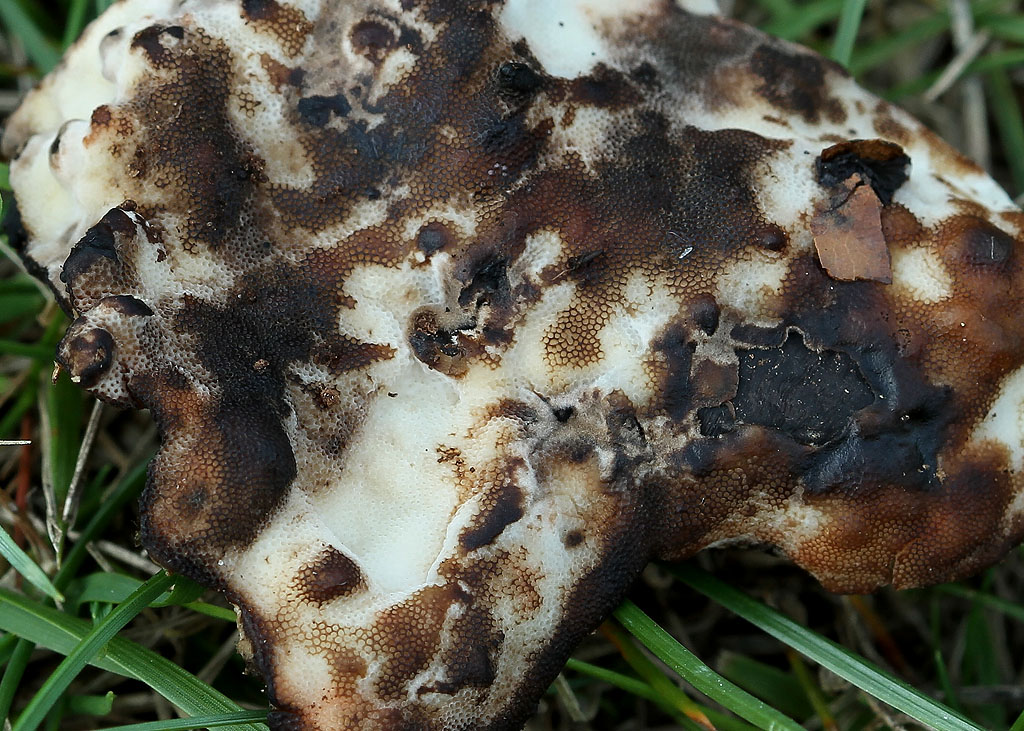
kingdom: Fungi
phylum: Basidiomycota
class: Agaricomycetes
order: Polyporales
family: Meripilaceae
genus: Rigidoporus
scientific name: Rigidoporus sanguinolentus
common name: blod-skorpeporesvamp
